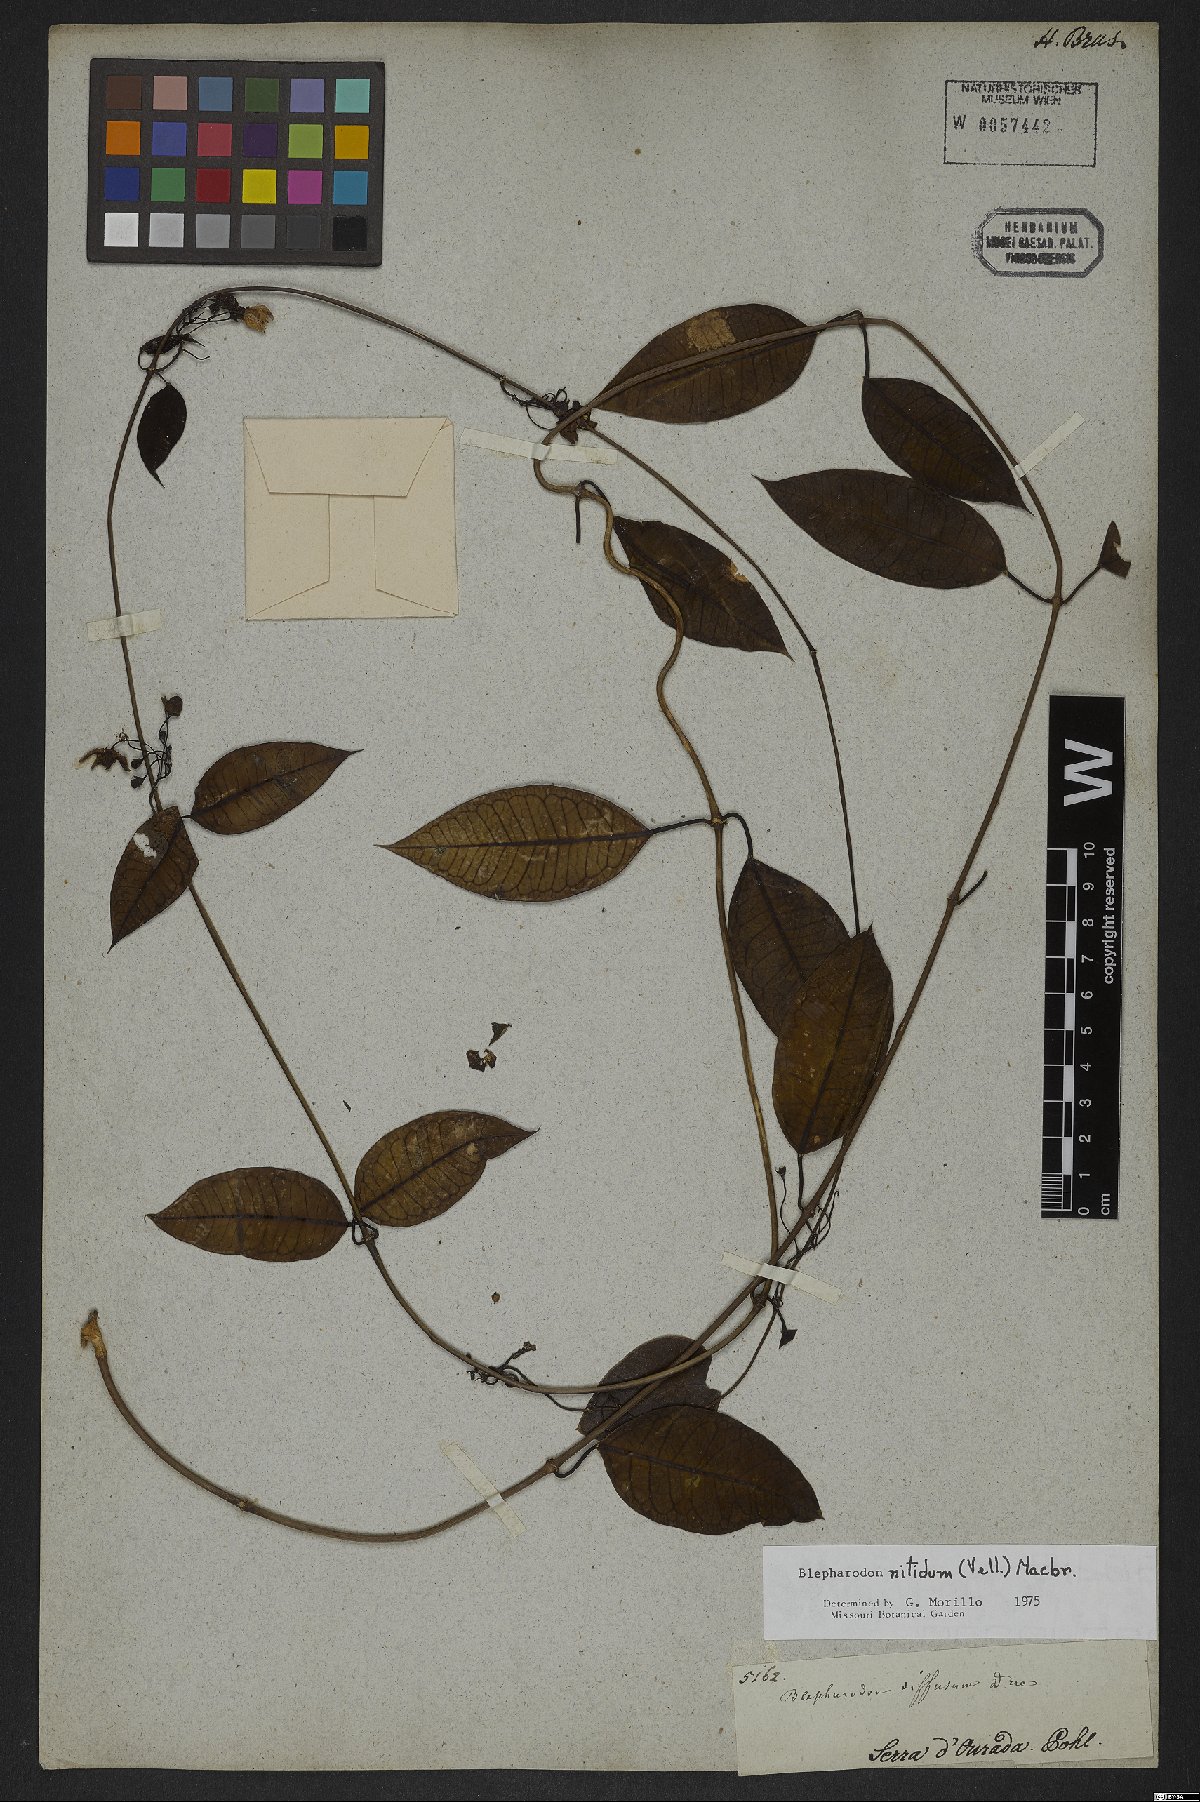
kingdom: Plantae
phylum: Tracheophyta
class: Magnoliopsida
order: Gentianales
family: Apocynaceae
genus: Blepharodon
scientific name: Blepharodon pictum
